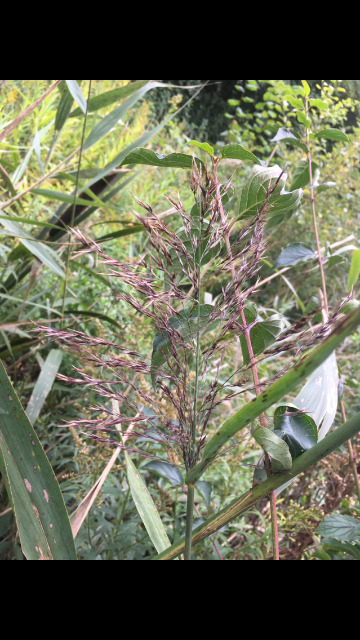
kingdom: Plantae
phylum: Tracheophyta
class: Liliopsida
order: Poales
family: Poaceae
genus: Phragmites
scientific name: Phragmites australis
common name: Tagrør
